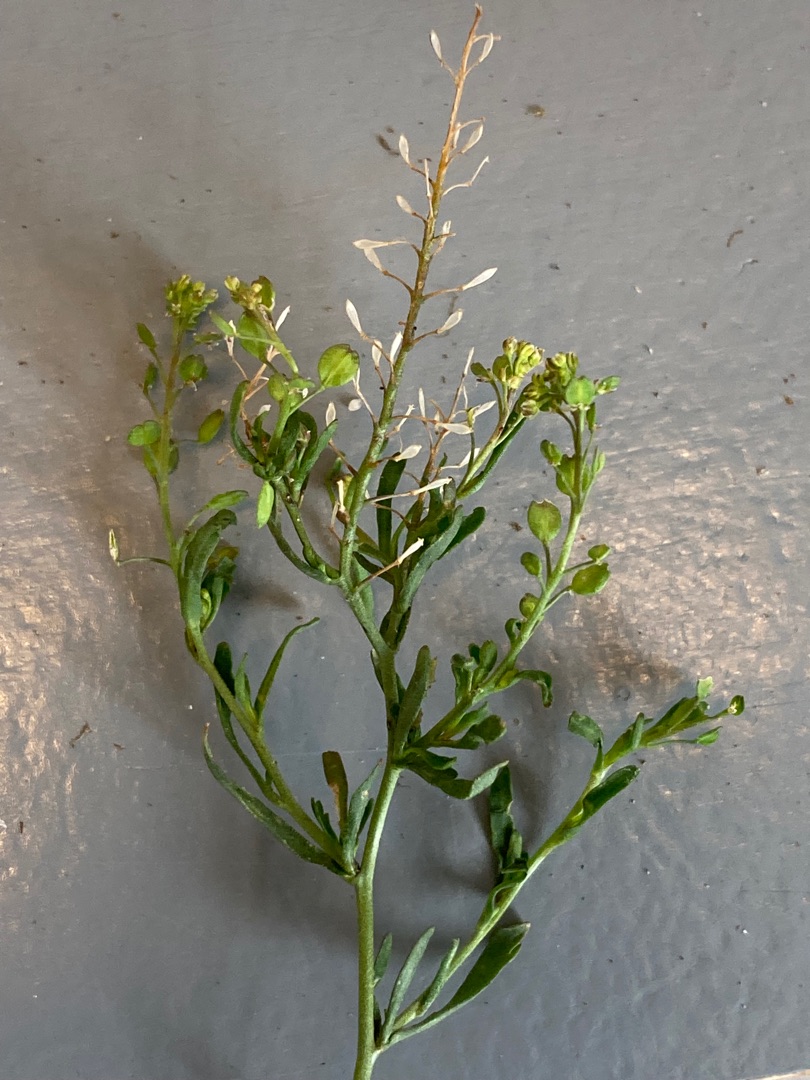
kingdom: Plantae
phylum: Tracheophyta
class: Magnoliopsida
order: Brassicales
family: Brassicaceae
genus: Lepidium
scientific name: Lepidium ruderale
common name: Stinkende karse
